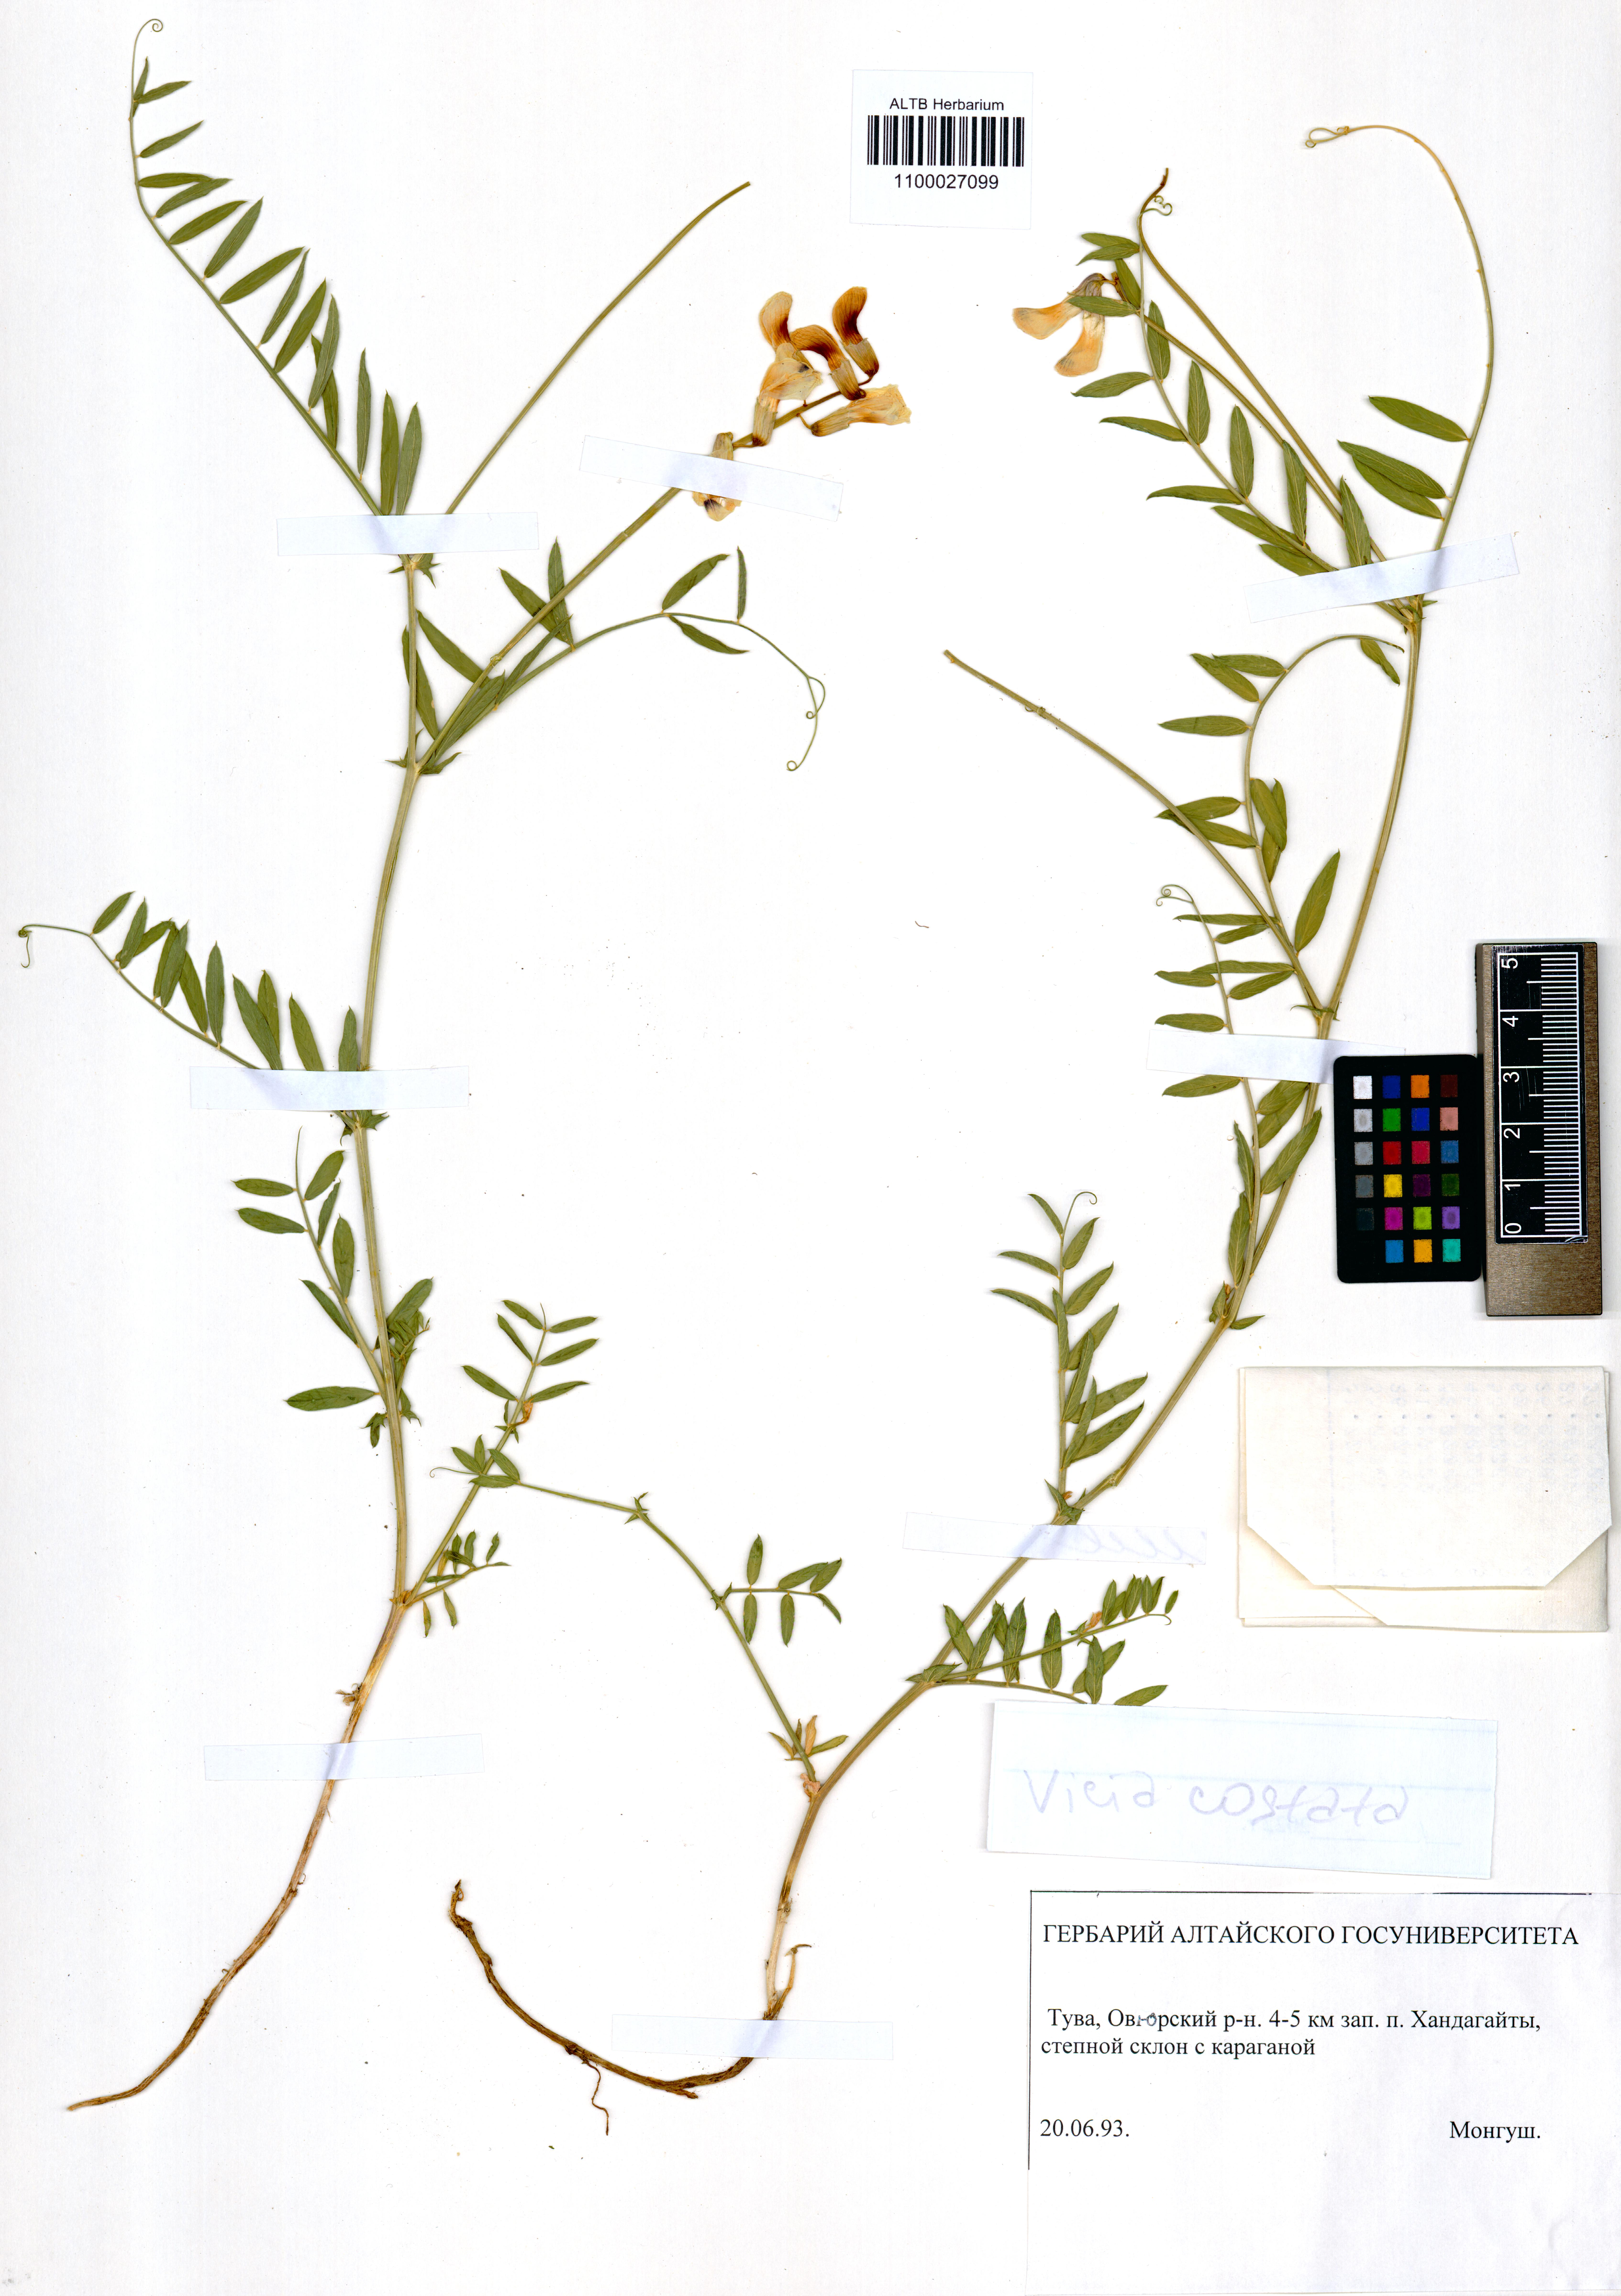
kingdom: Plantae
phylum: Tracheophyta
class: Magnoliopsida
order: Fabales
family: Fabaceae
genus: Vicia
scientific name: Vicia costata
